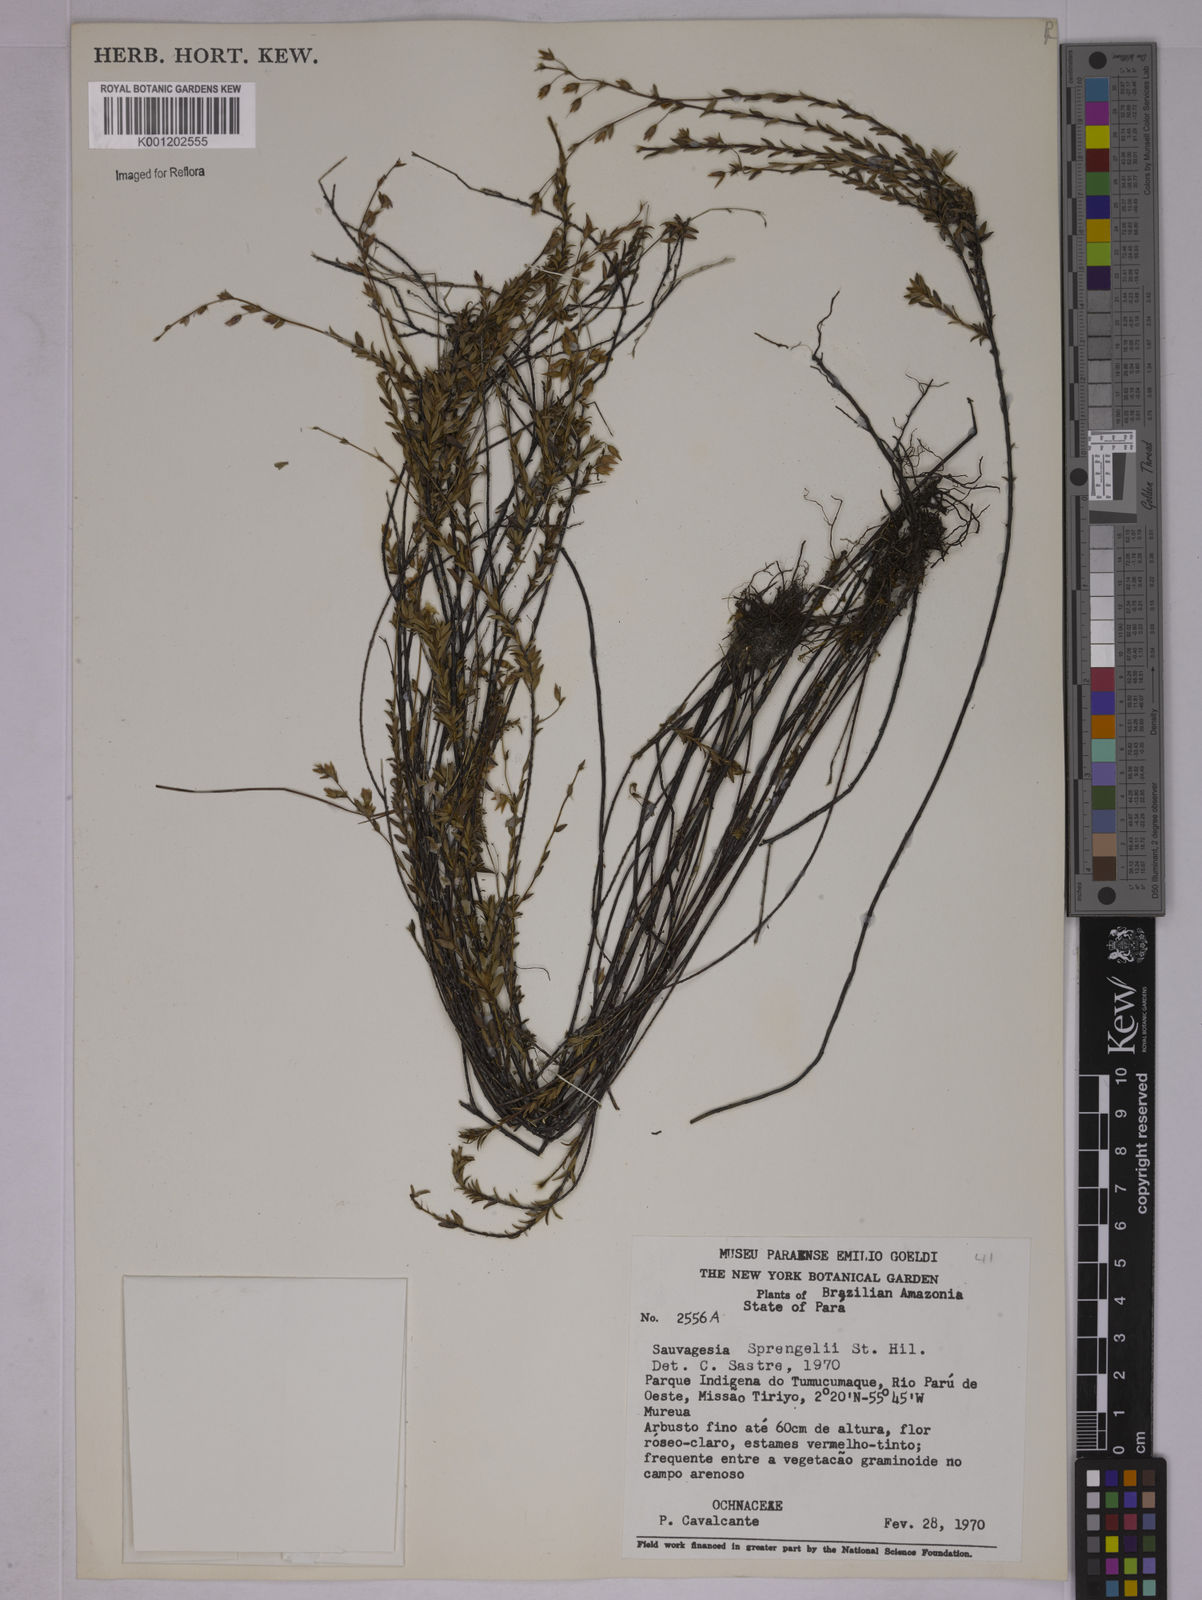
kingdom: Plantae
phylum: Tracheophyta
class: Magnoliopsida
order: Malpighiales
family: Ochnaceae
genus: Sauvagesia
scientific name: Sauvagesia sprengelii
